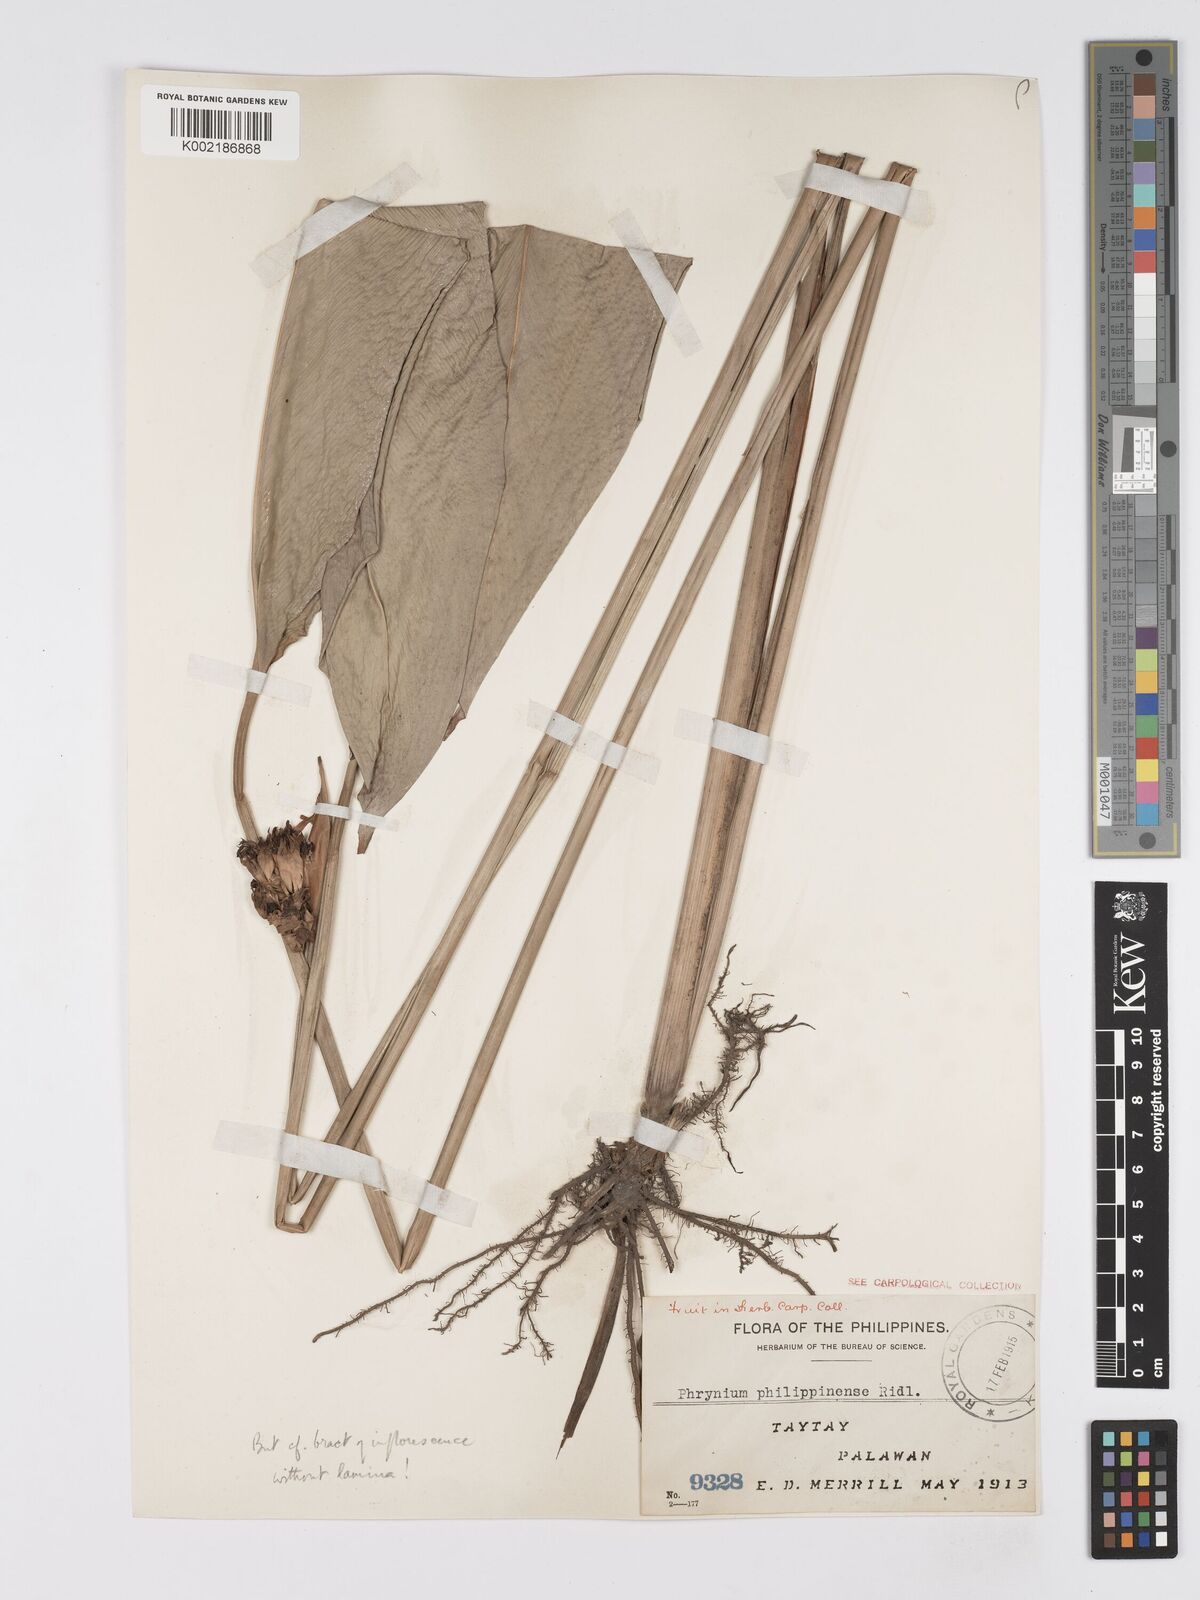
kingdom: Plantae
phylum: Tracheophyta
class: Liliopsida
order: Zingiberales
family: Marantaceae
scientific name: Marantaceae
